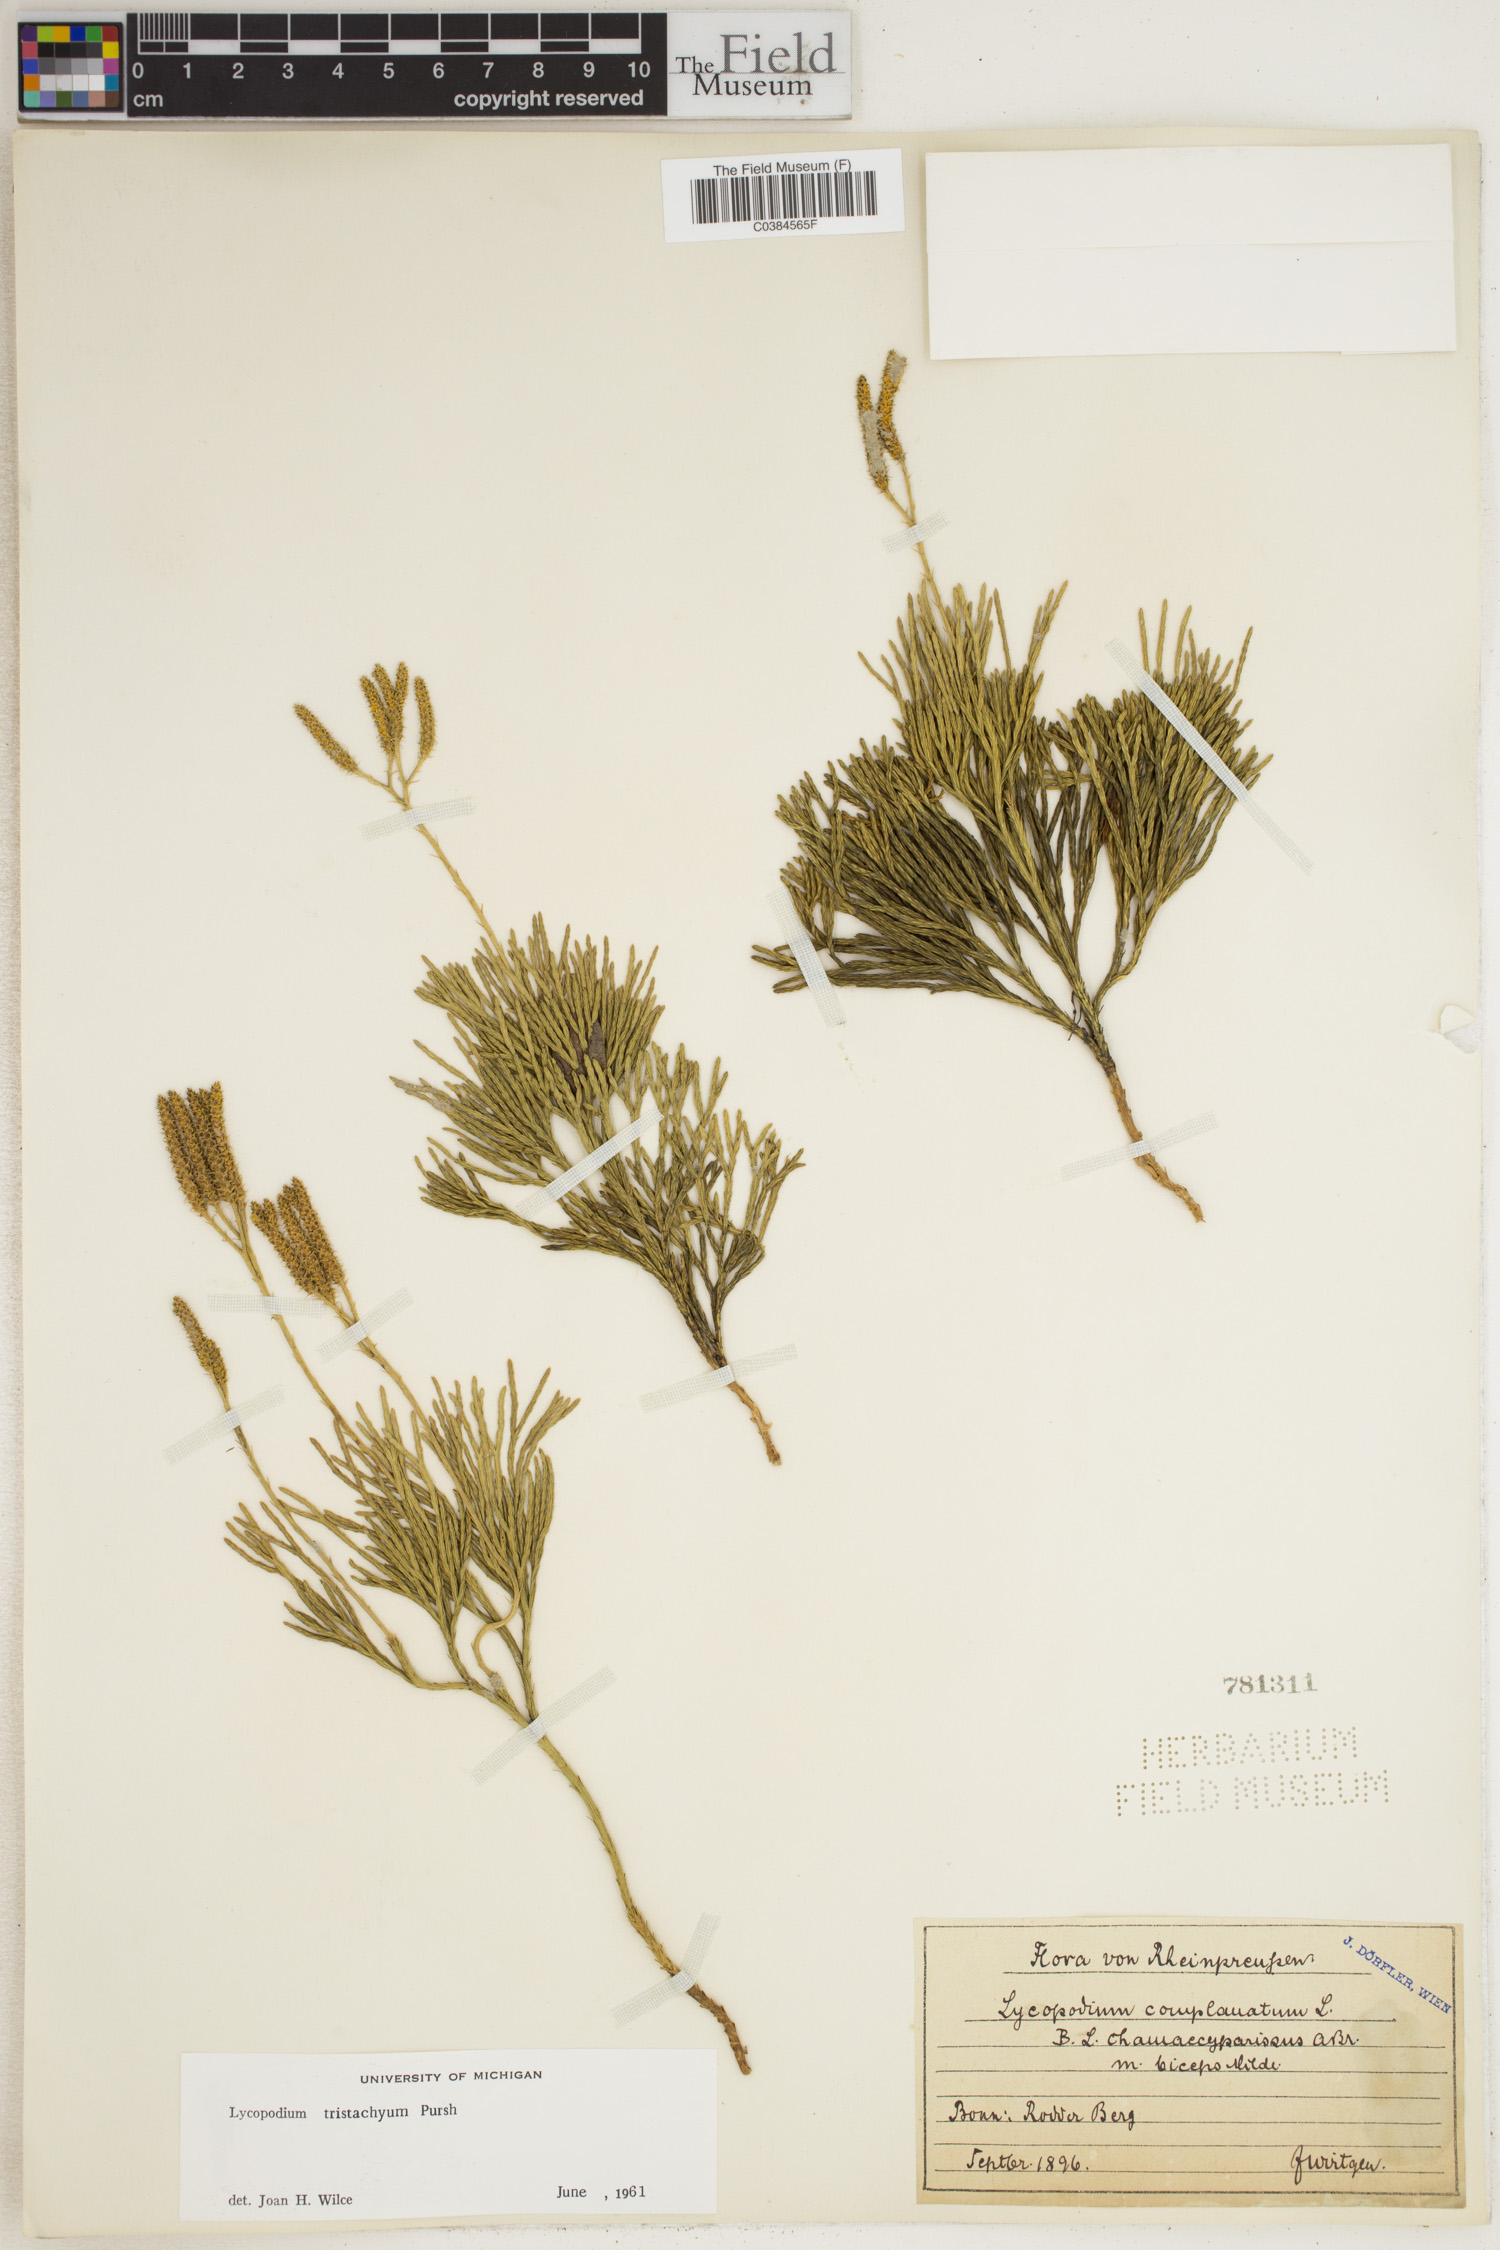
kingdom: Plantae
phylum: Tracheophyta
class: Lycopodiopsida
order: Lycopodiales
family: Lycopodiaceae
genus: Diphasiastrum
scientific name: Diphasiastrum tristachyum
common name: Blue ground-cedar
